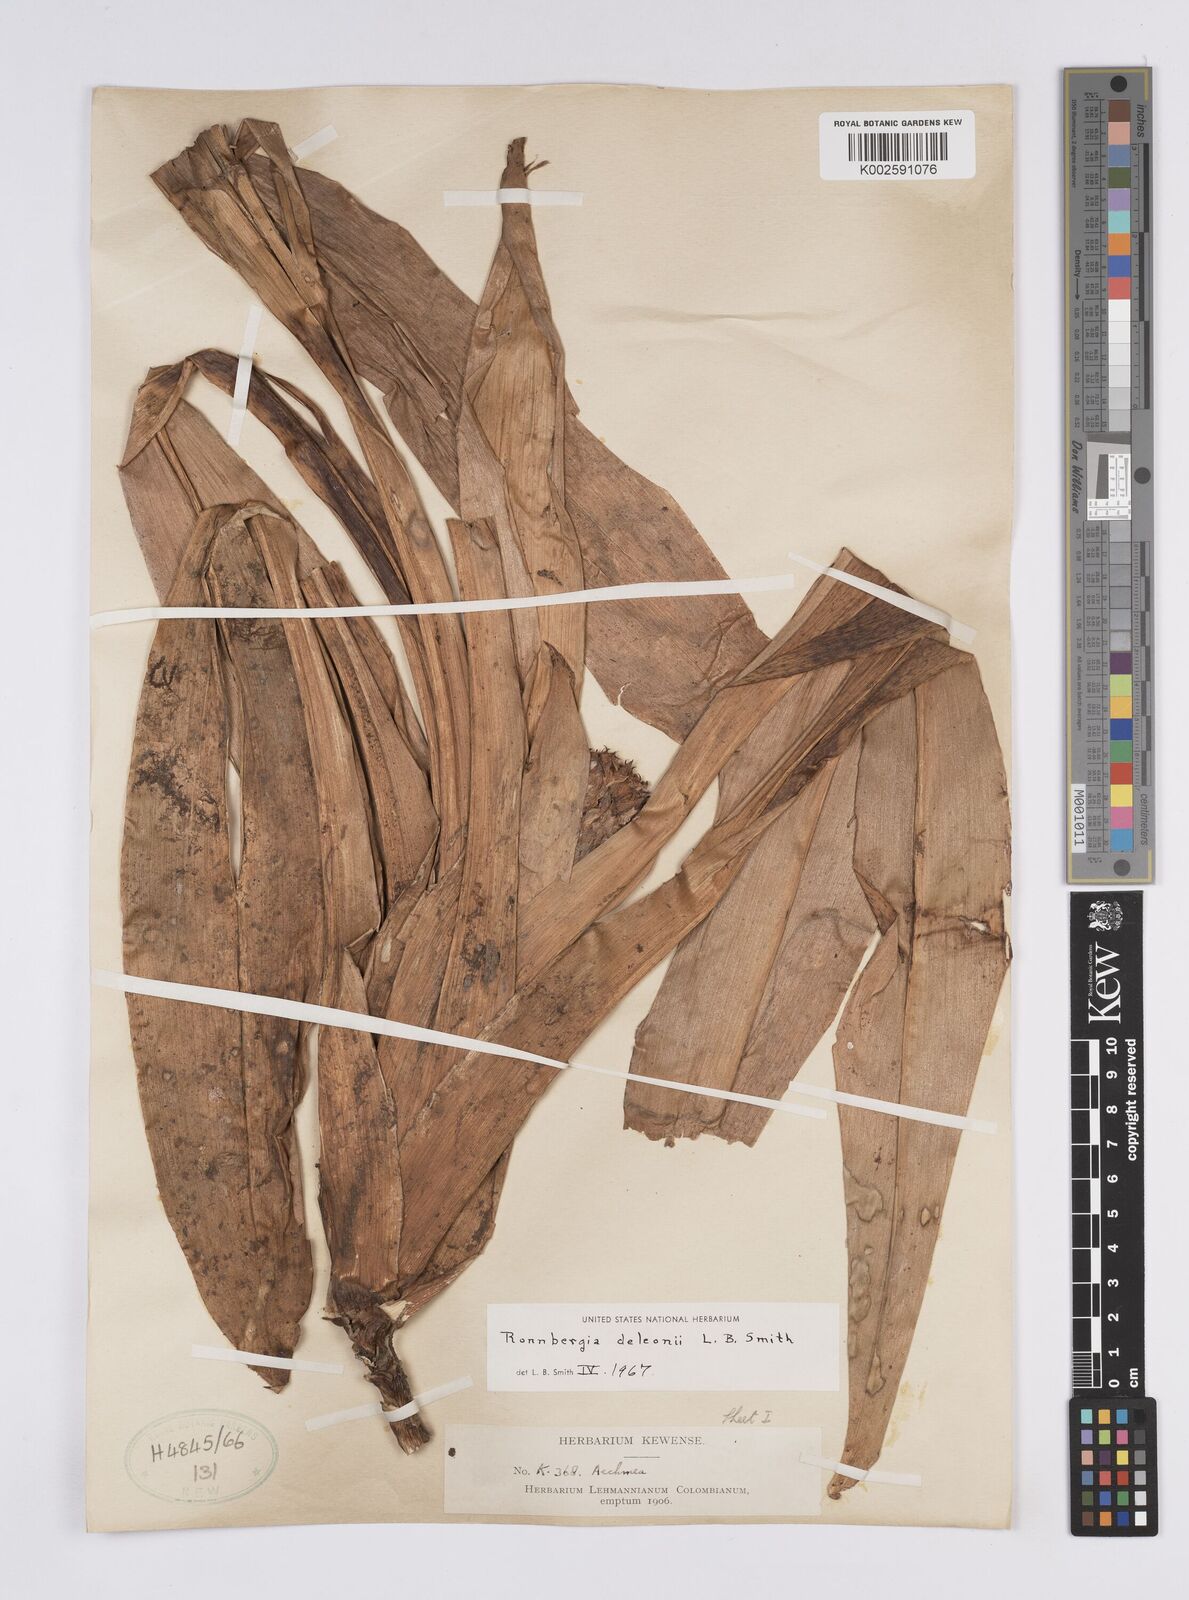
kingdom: Plantae
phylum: Tracheophyta
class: Liliopsida
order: Poales
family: Bromeliaceae
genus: Ronnbergia
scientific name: Ronnbergia deleonii
